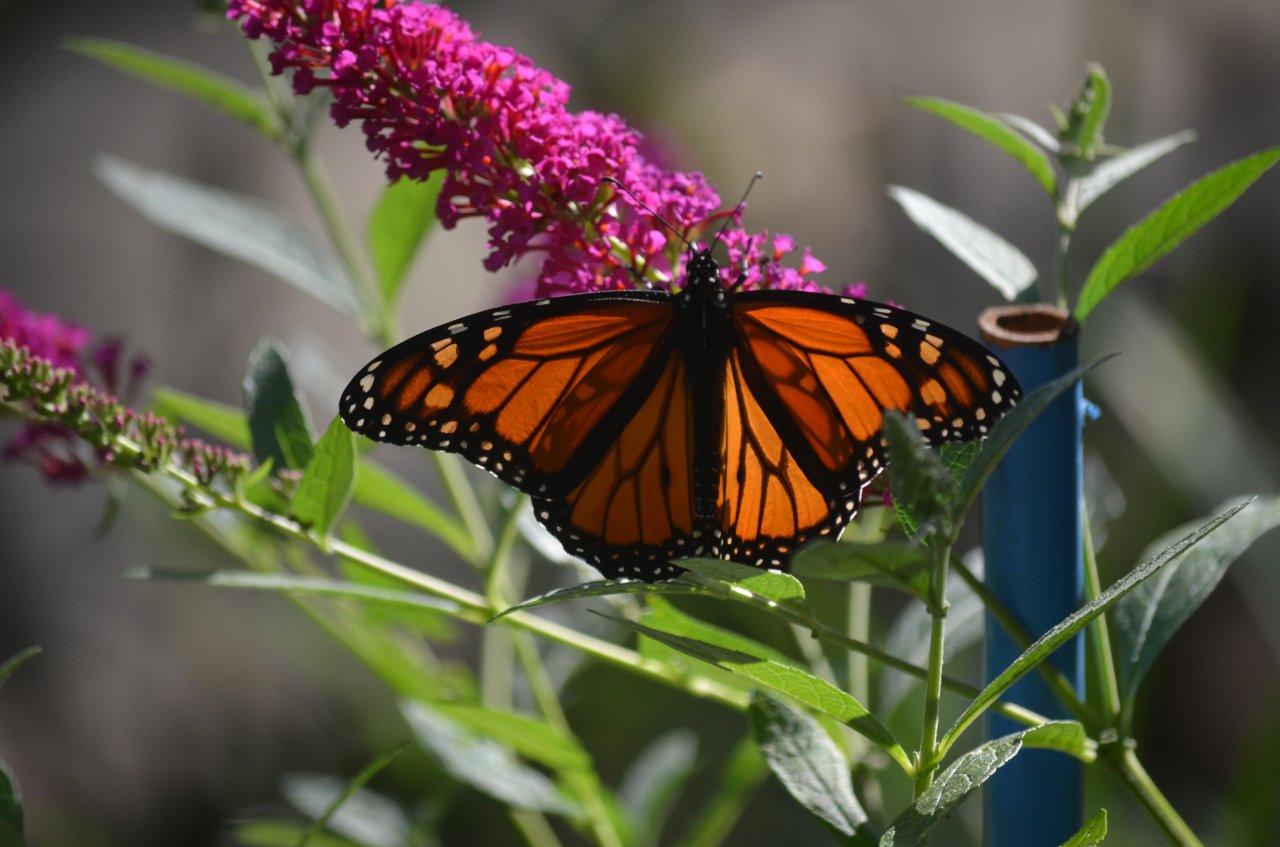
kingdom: Animalia
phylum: Arthropoda
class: Insecta
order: Lepidoptera
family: Nymphalidae
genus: Danaus
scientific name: Danaus plexippus
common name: Monarch
